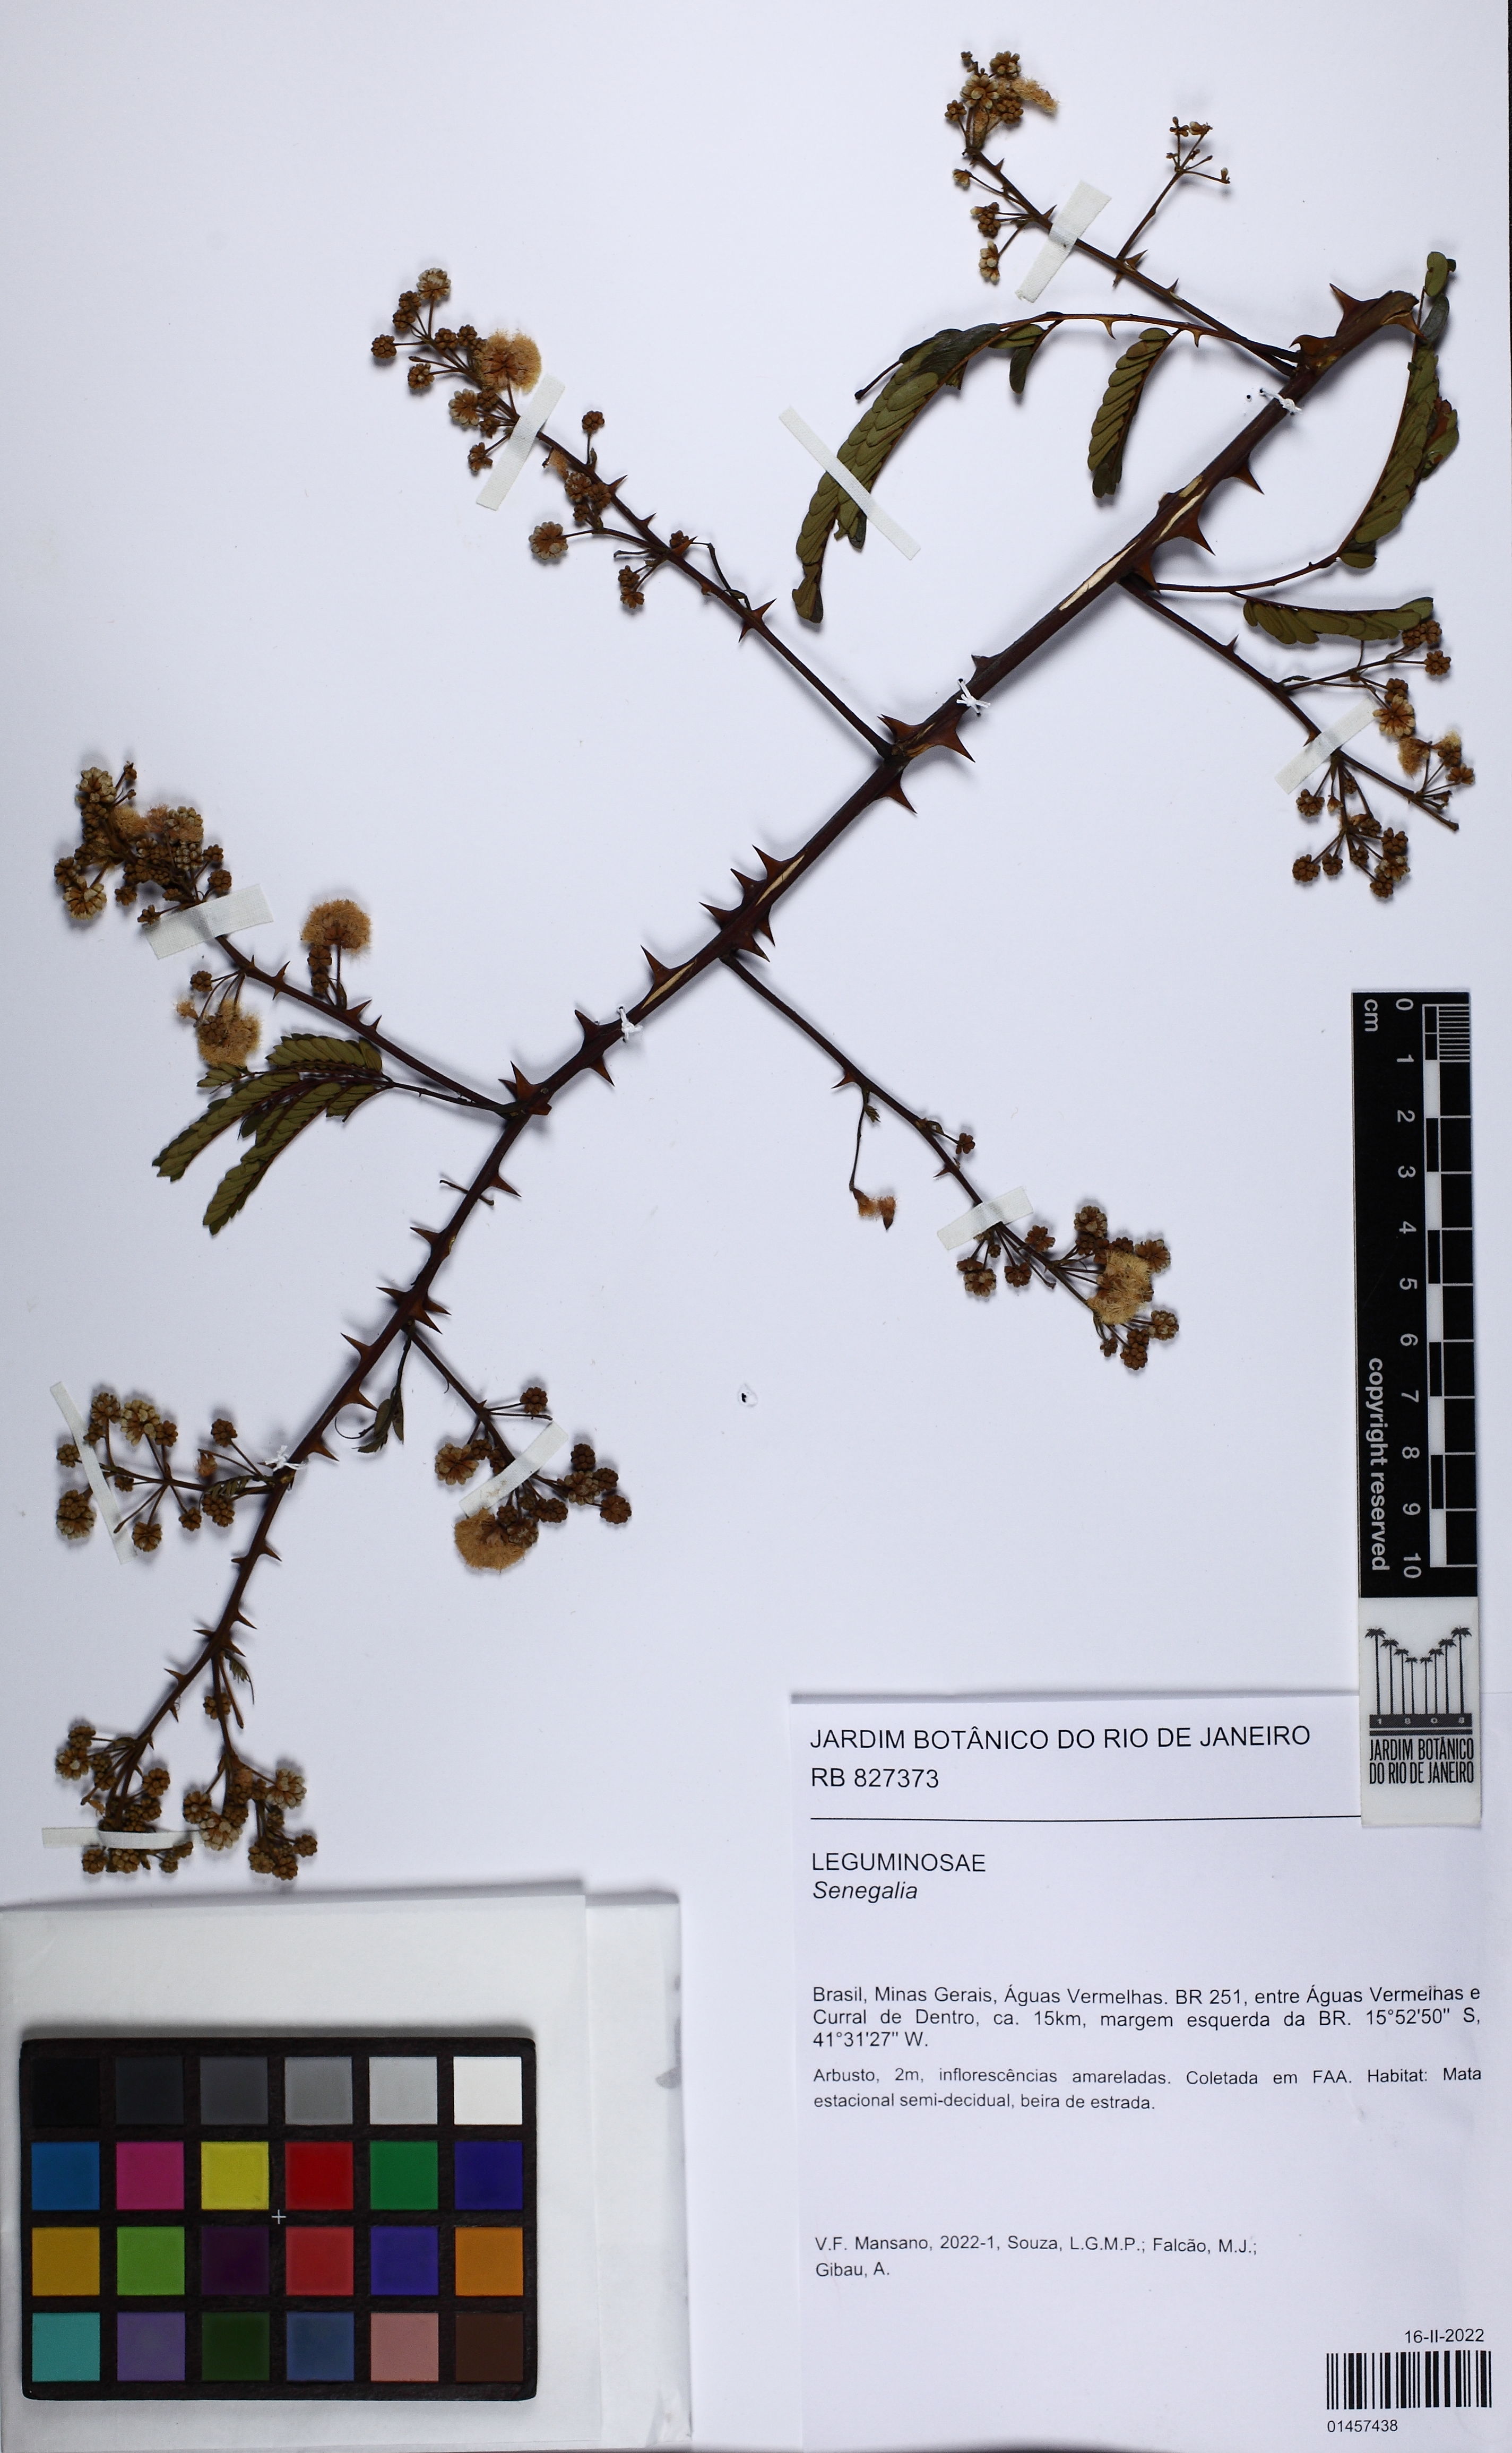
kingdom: Plantae
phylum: Tracheophyta
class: Magnoliopsida
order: Fabales
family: Fabaceae
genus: Senegalia
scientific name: Senegalia
